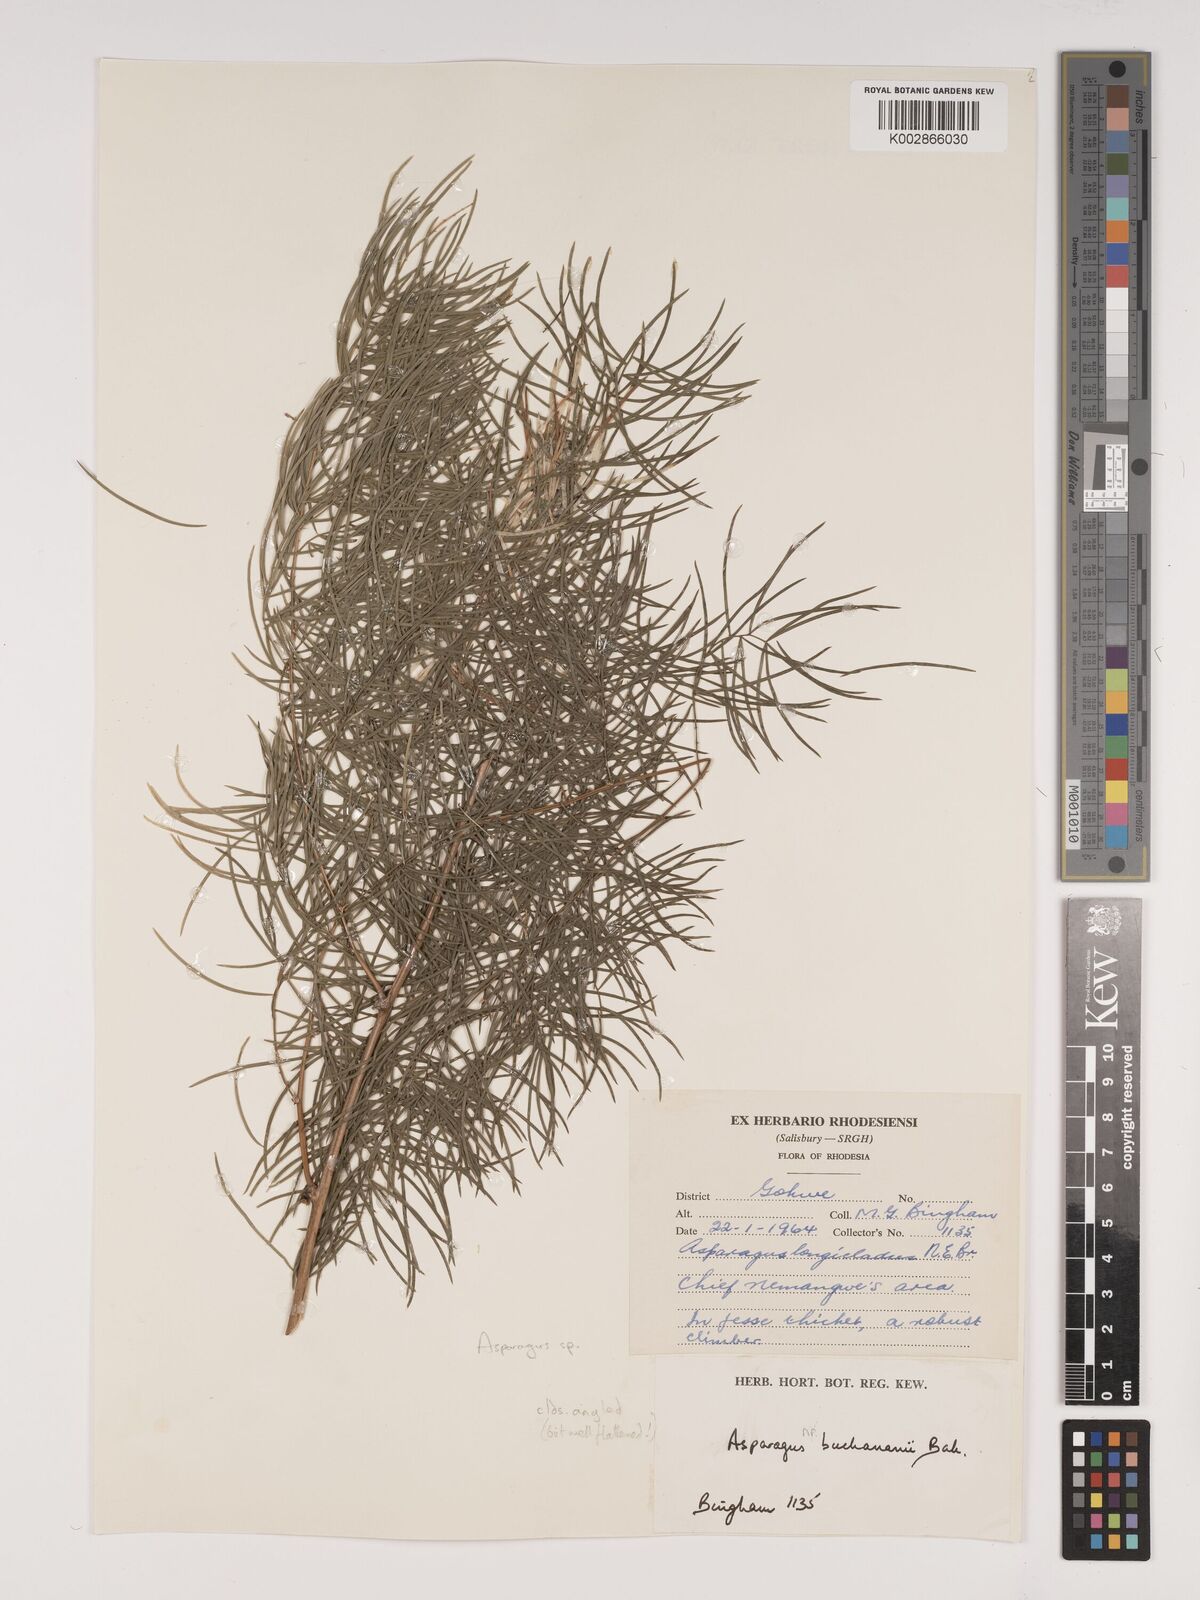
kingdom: Plantae
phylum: Tracheophyta
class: Liliopsida
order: Asparagales
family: Asparagaceae
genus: Asparagus
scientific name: Asparagus buchananii
